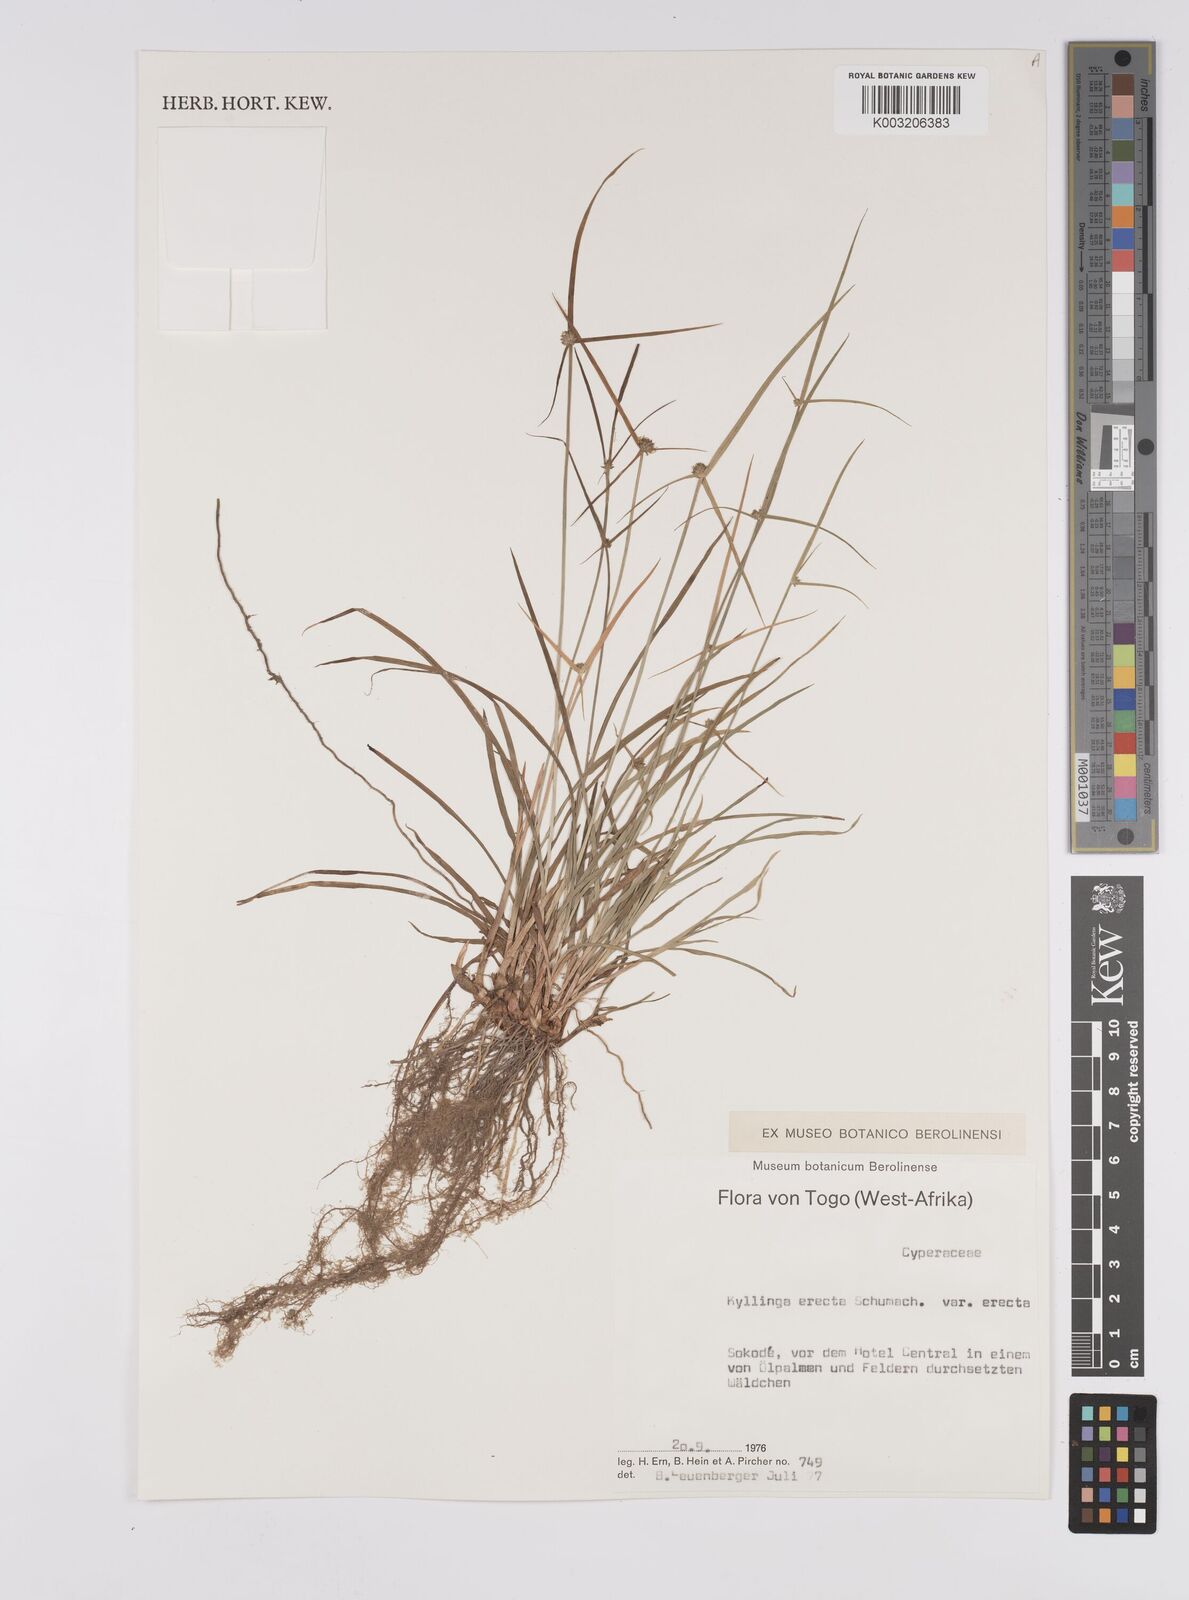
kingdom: Plantae
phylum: Tracheophyta
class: Liliopsida
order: Poales
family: Cyperaceae
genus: Cyperus
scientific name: Cyperus erectus
